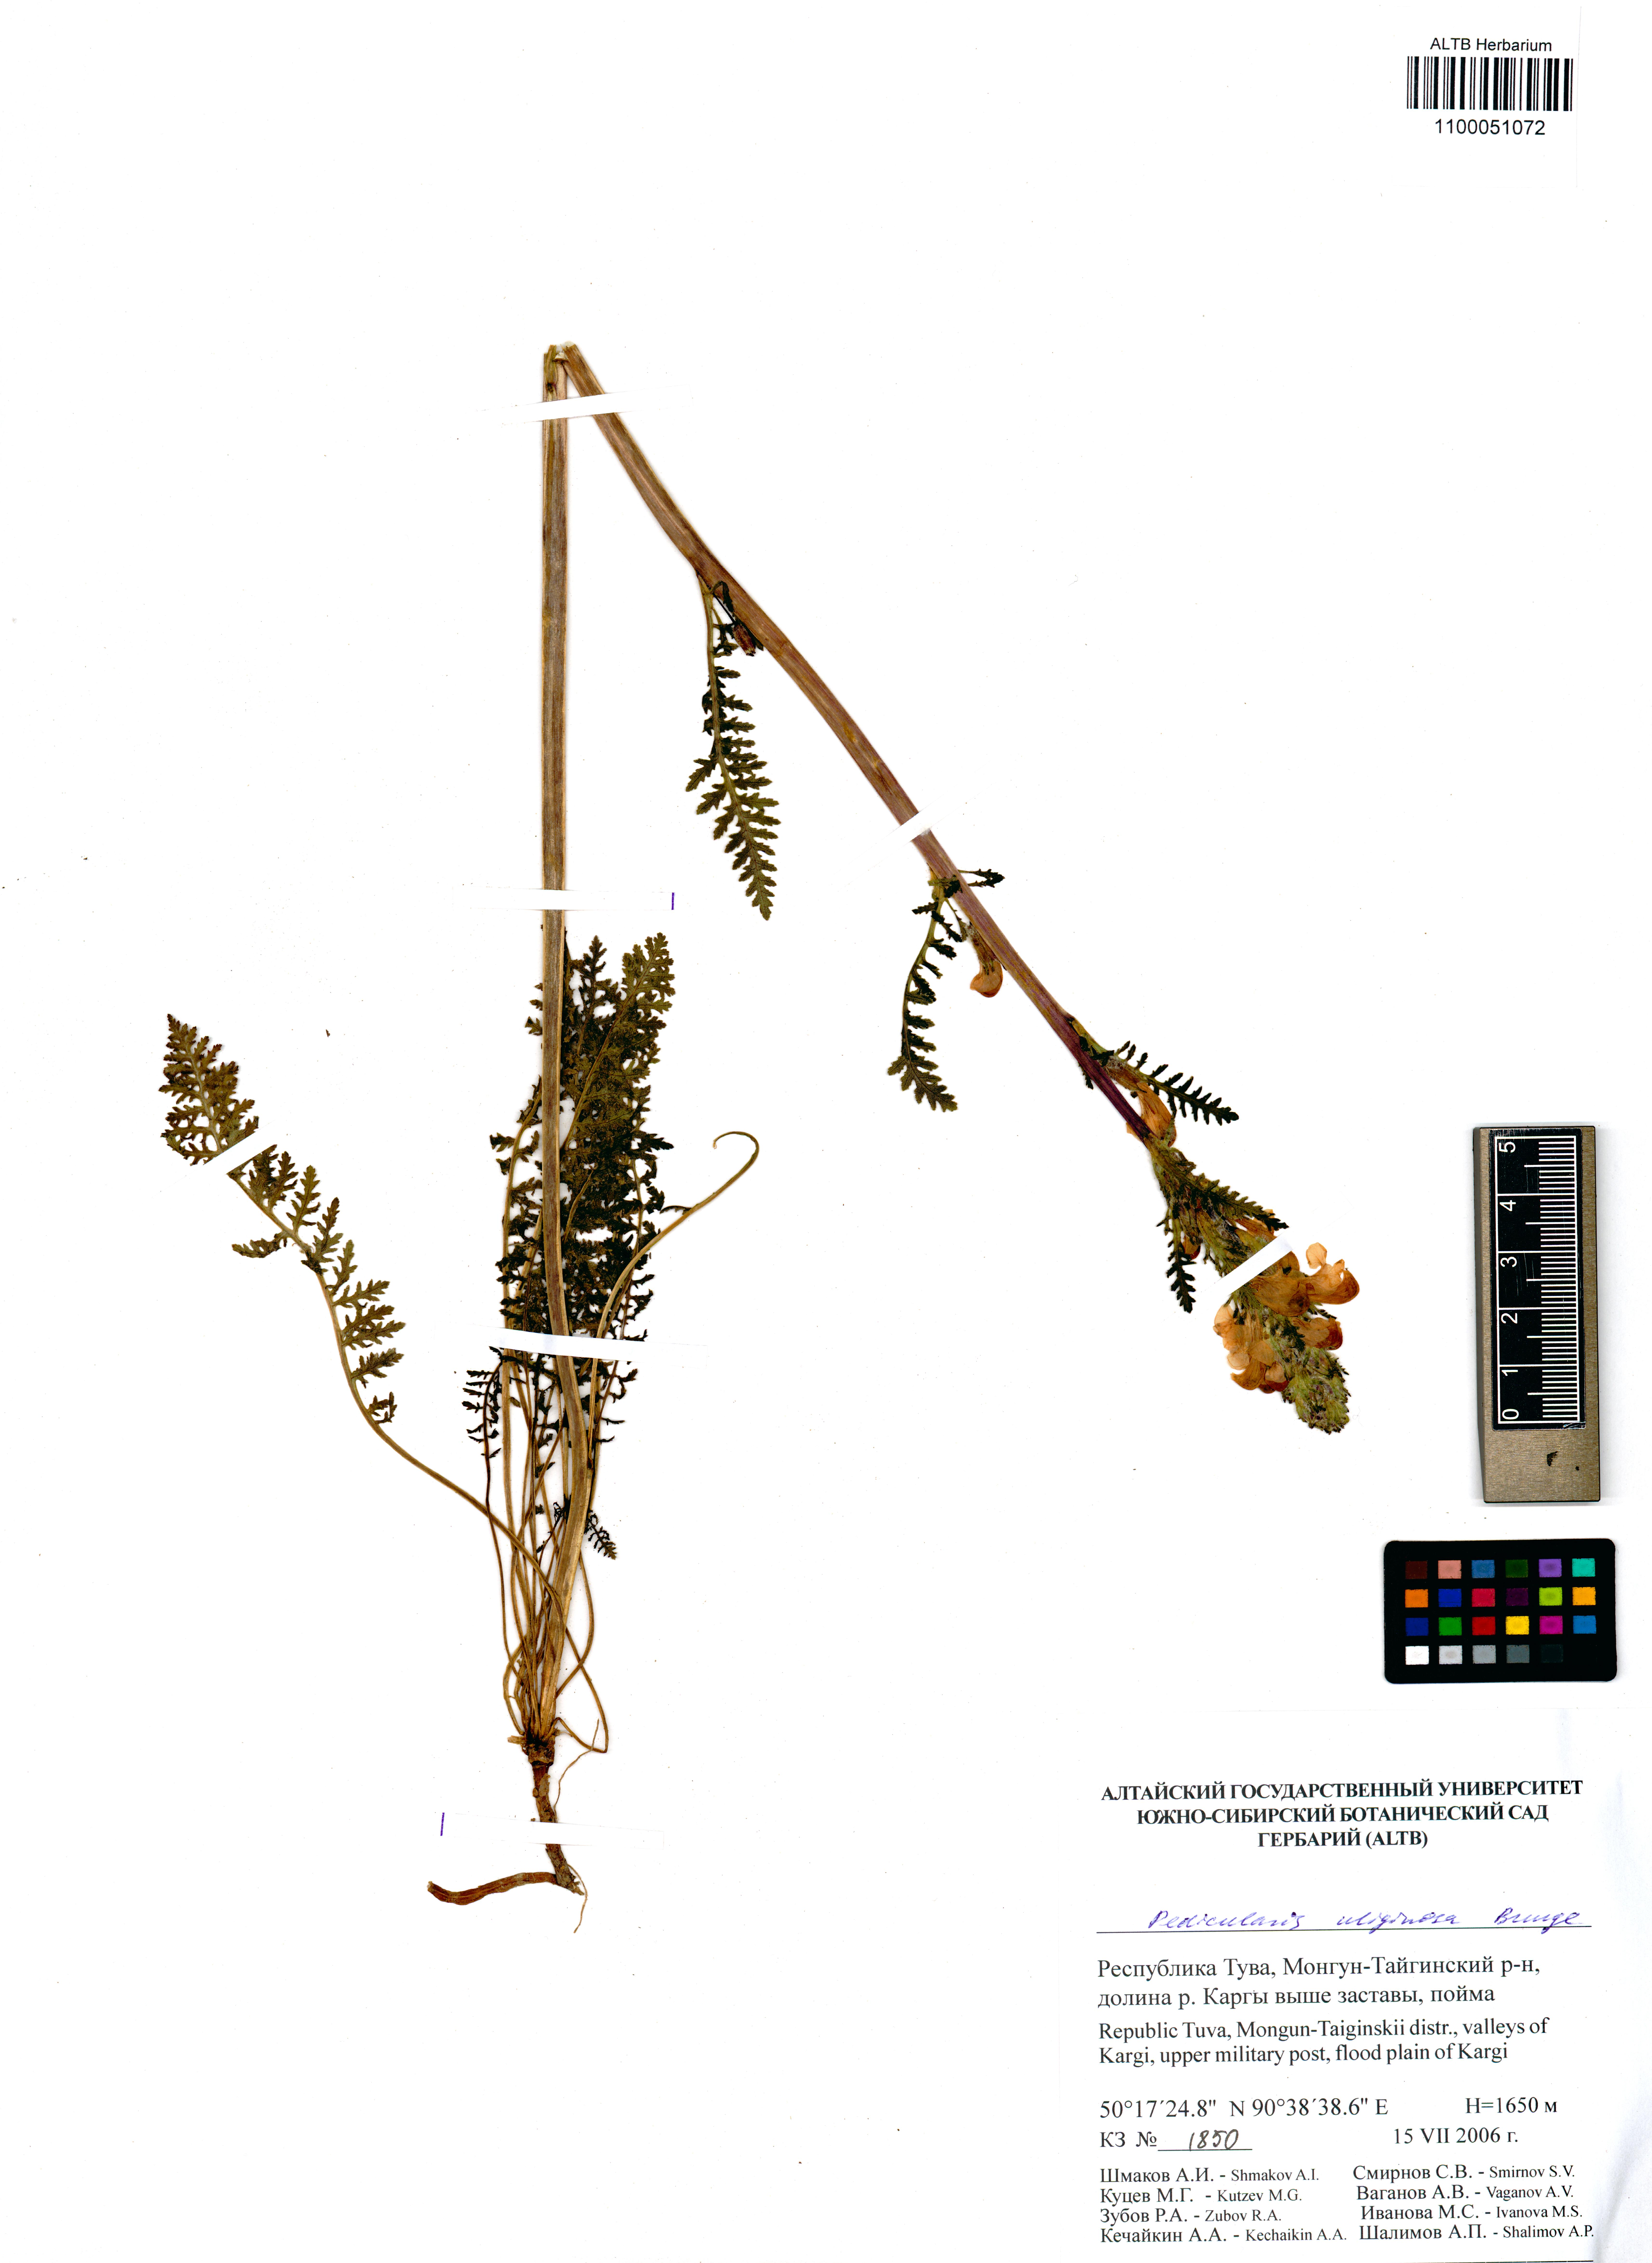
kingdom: Plantae
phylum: Tracheophyta
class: Magnoliopsida
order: Lamiales
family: Orobanchaceae
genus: Pedicularis
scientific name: Pedicularis uliginosa
